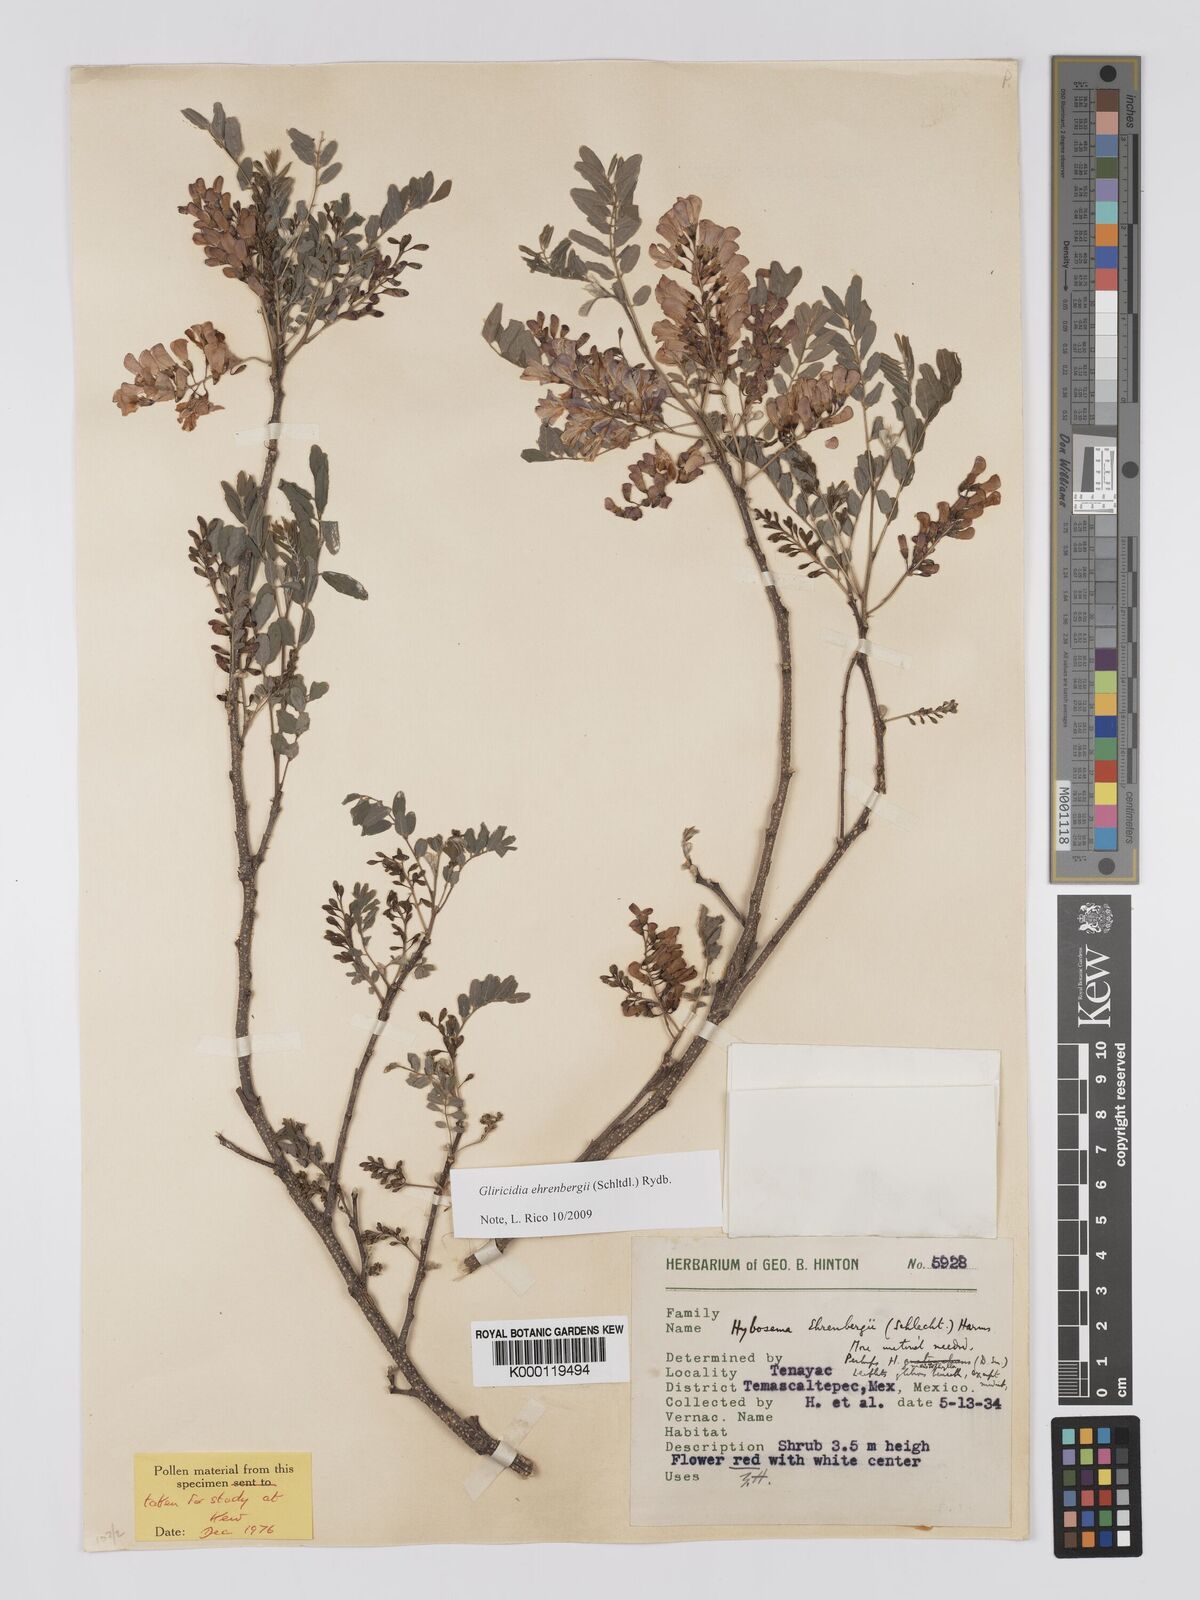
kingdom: Plantae
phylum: Tracheophyta
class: Magnoliopsida
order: Fabales
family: Fabaceae
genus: Gliricidia
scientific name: Gliricidia ehrenbergii
